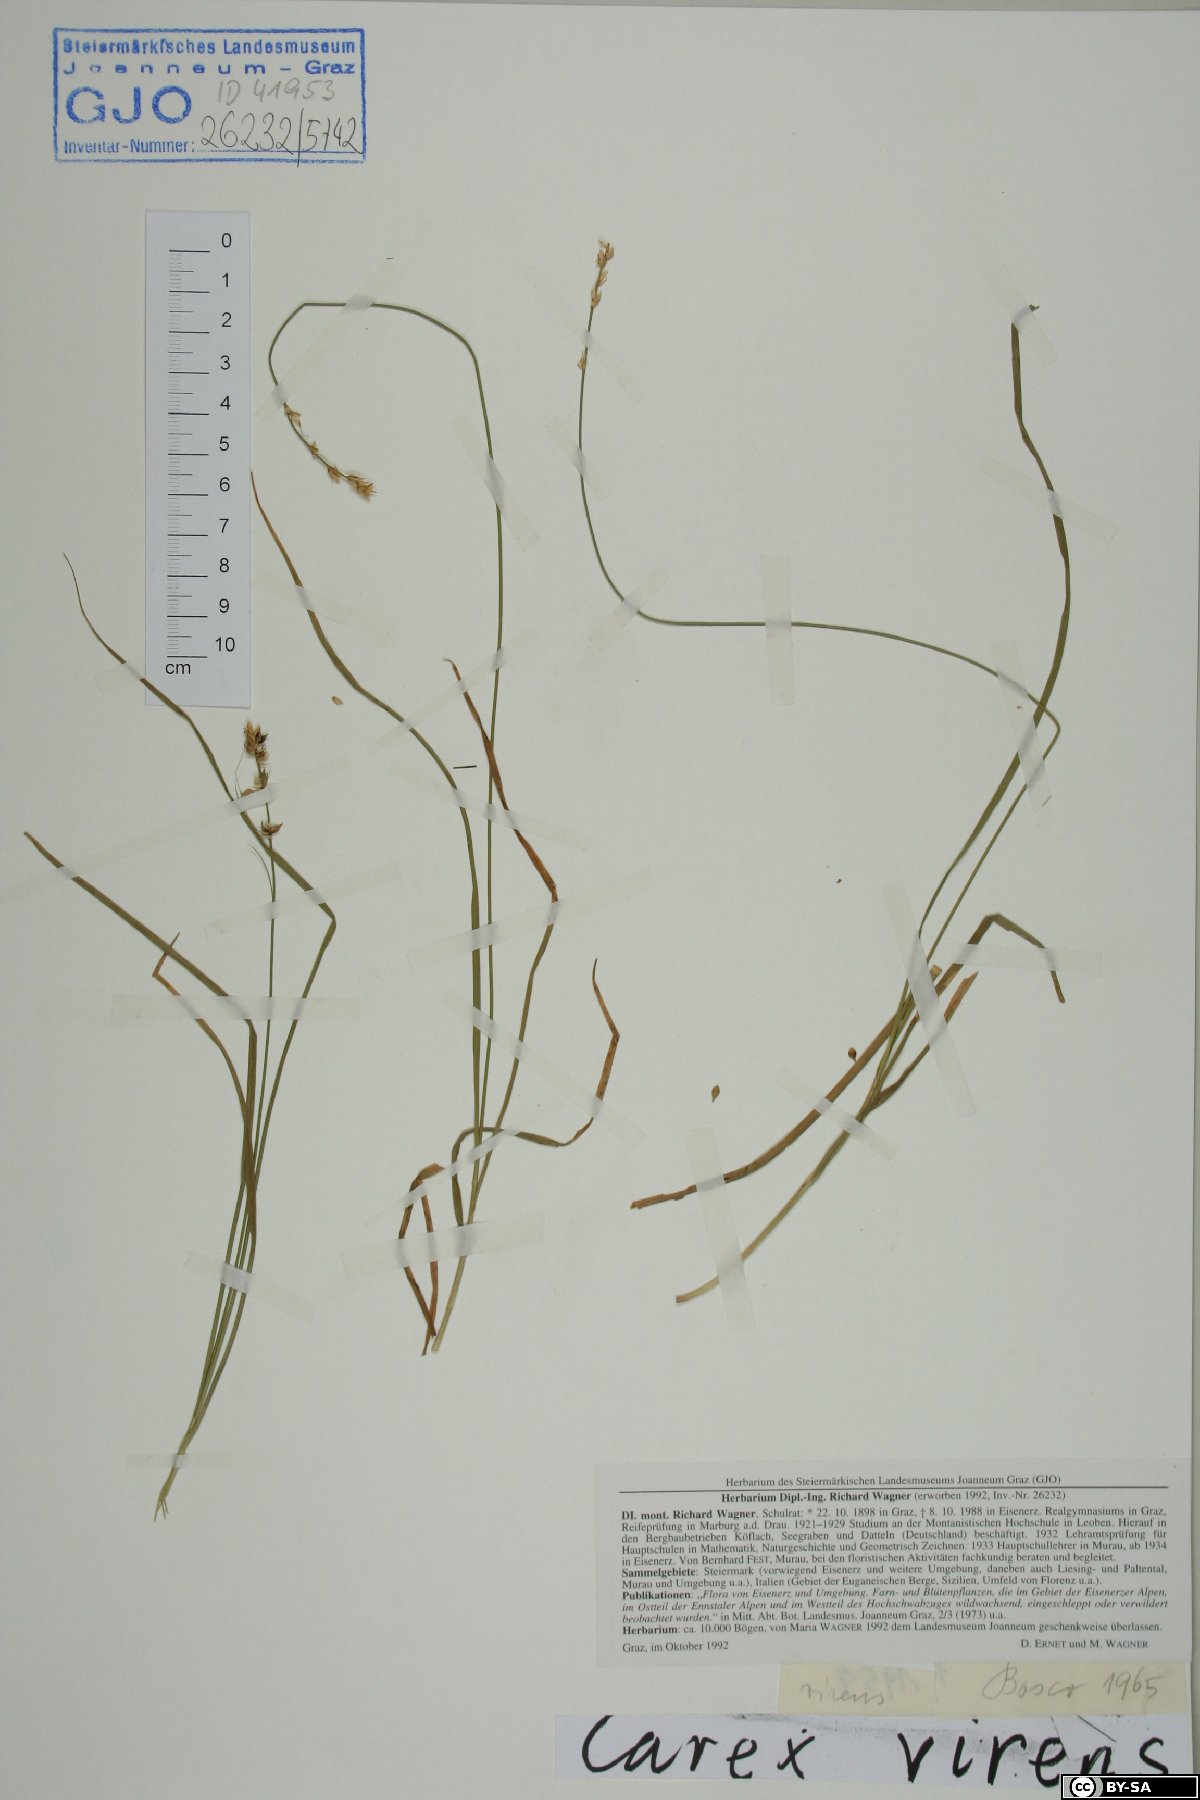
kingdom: Plantae
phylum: Tracheophyta
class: Liliopsida
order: Poales
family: Cyperaceae
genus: Carex
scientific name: Carex divulsa
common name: Grassland sedge
